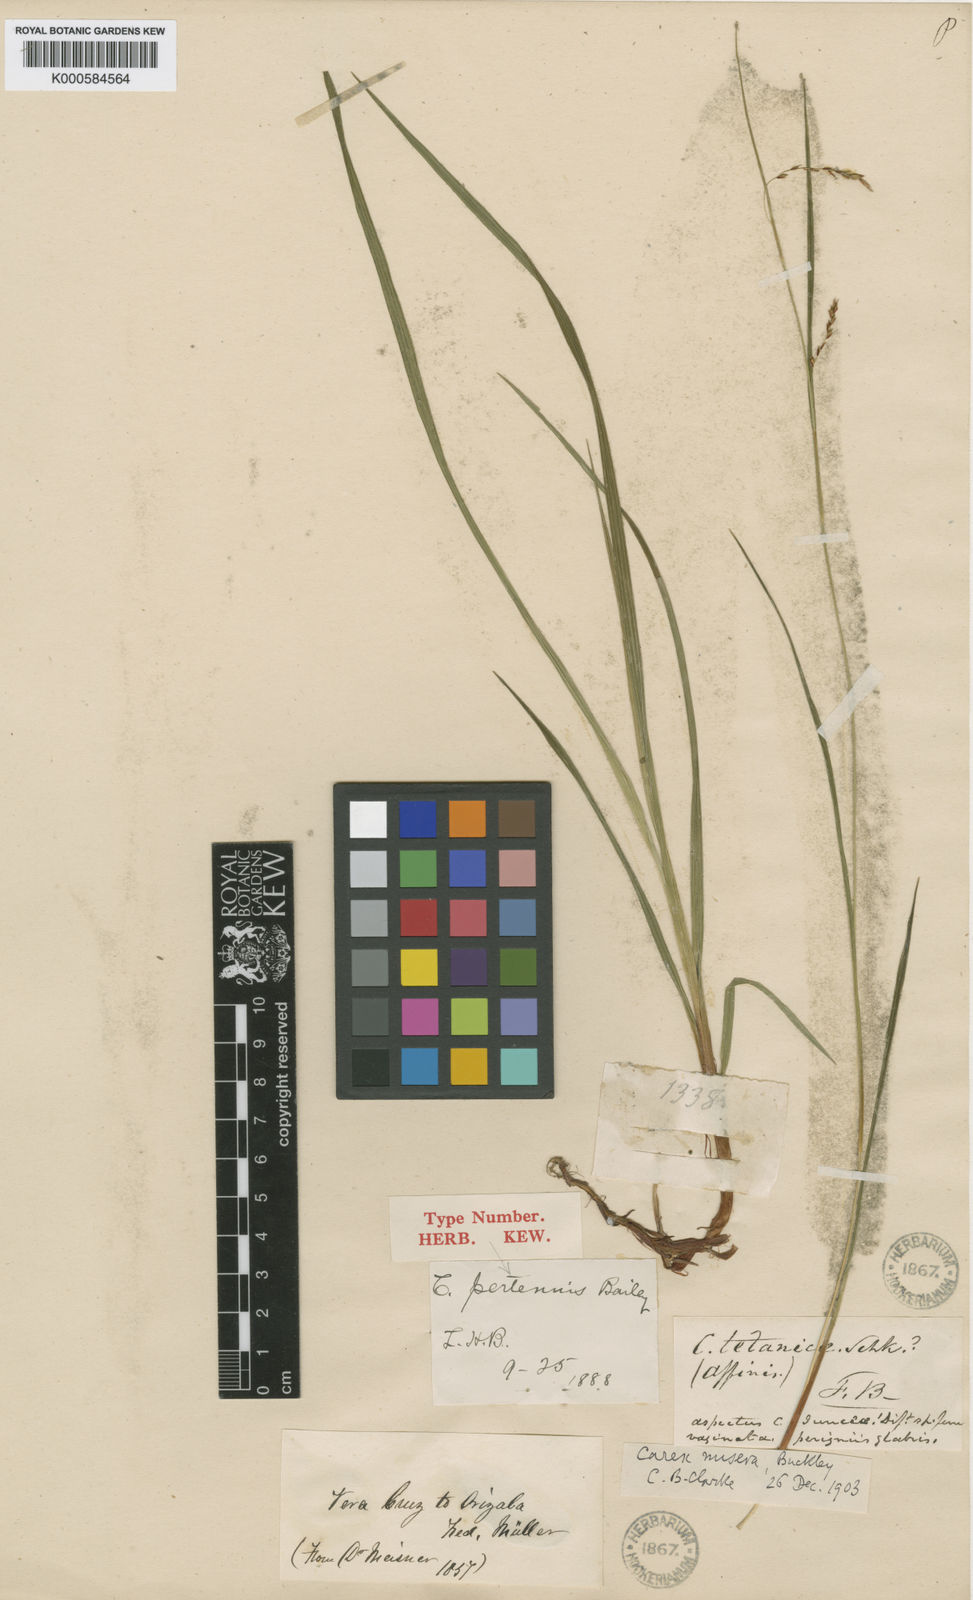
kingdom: Plantae
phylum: Tracheophyta
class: Liliopsida
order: Poales
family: Cyperaceae
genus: Carex
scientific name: Carex
